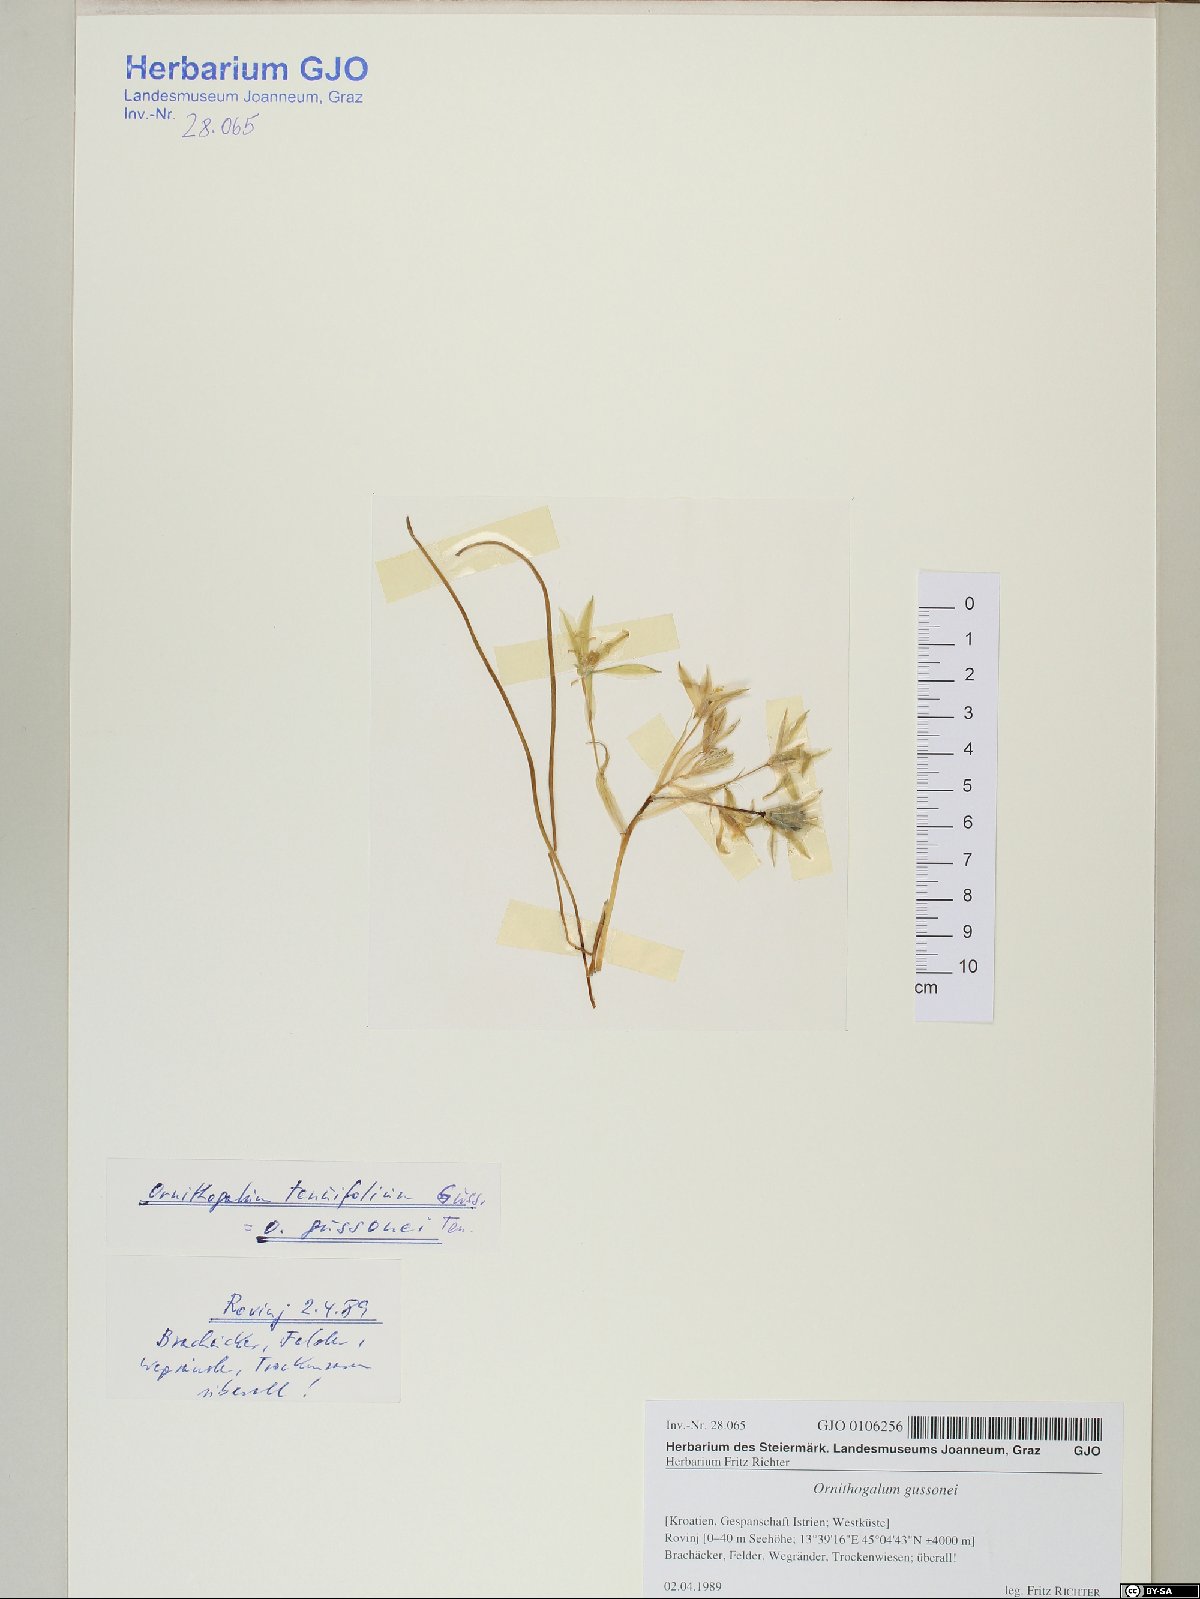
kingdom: Plantae
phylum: Tracheophyta
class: Liliopsida
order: Asparagales
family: Asparagaceae
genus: Ornithogalum
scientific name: Ornithogalum gussonei
